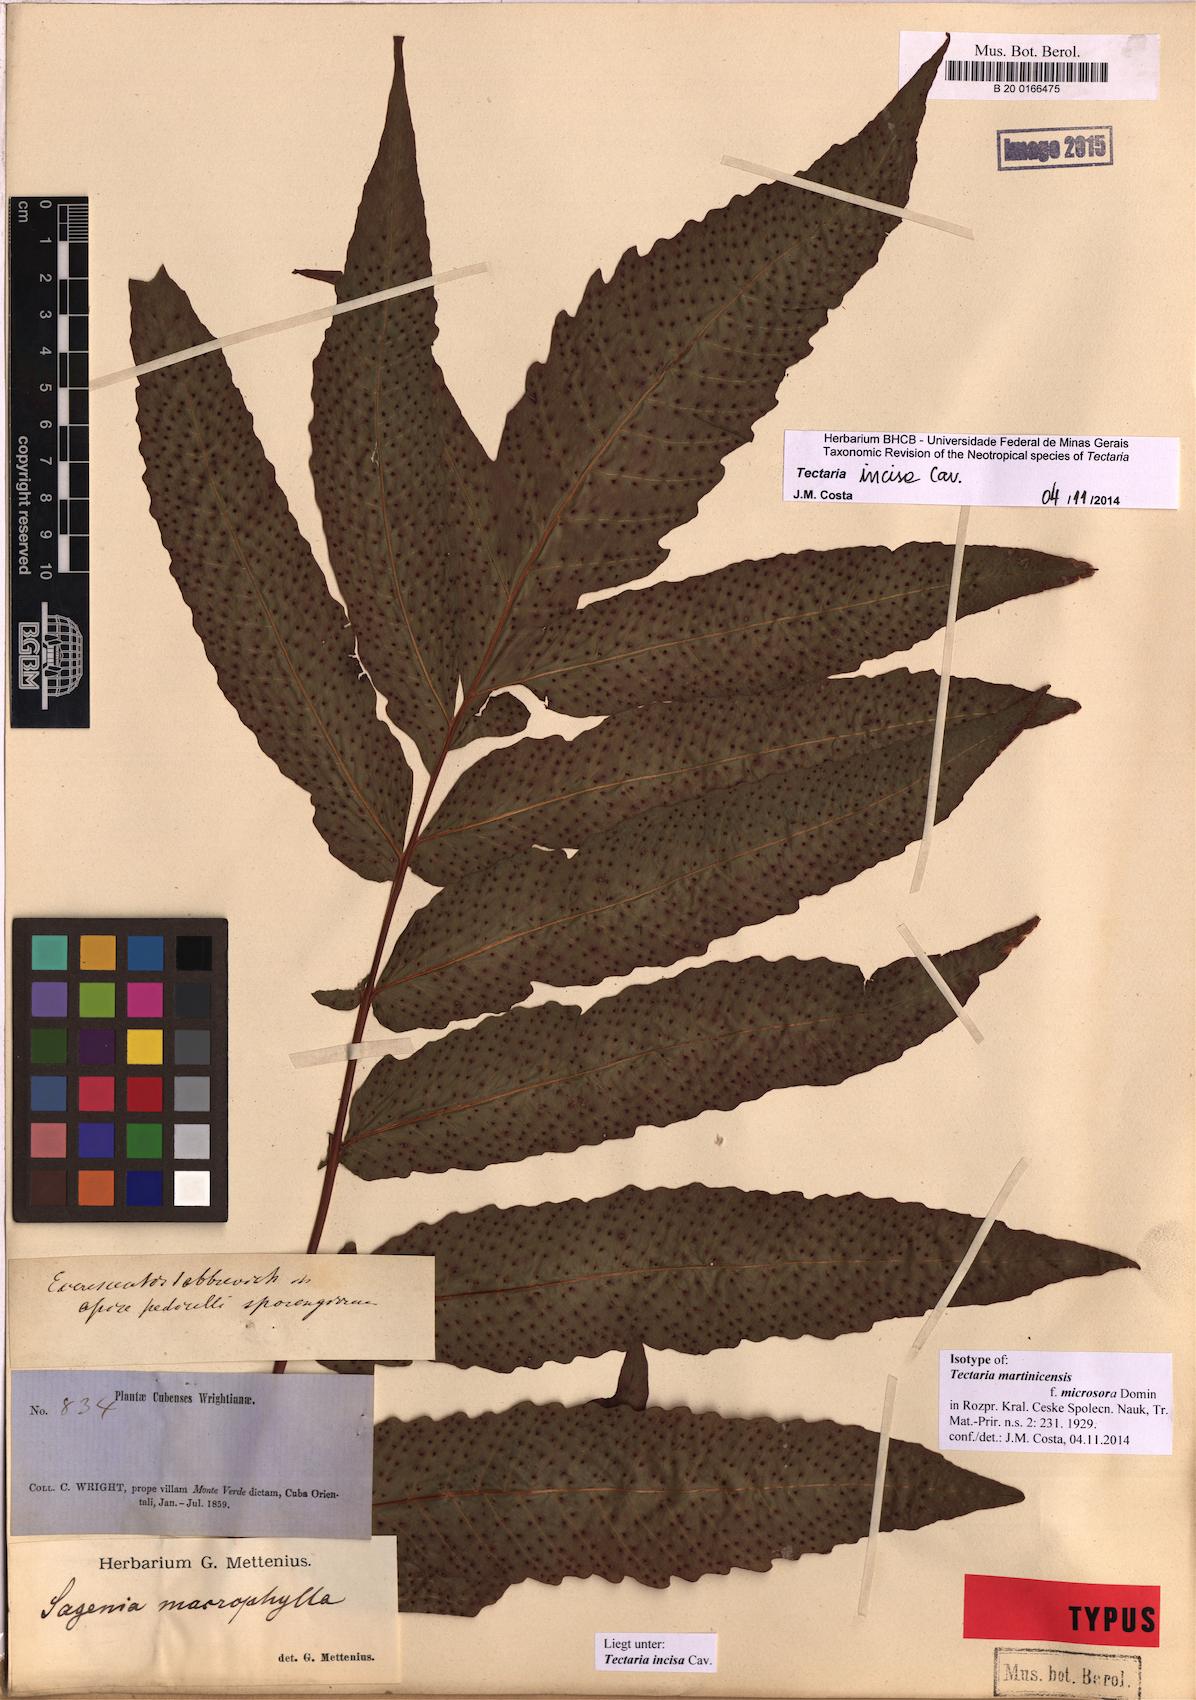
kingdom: Plantae
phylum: Tracheophyta
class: Polypodiopsida
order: Polypodiales
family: Tectariaceae
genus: Tectaria
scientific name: Tectaria incisa
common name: Incised halberd fern
